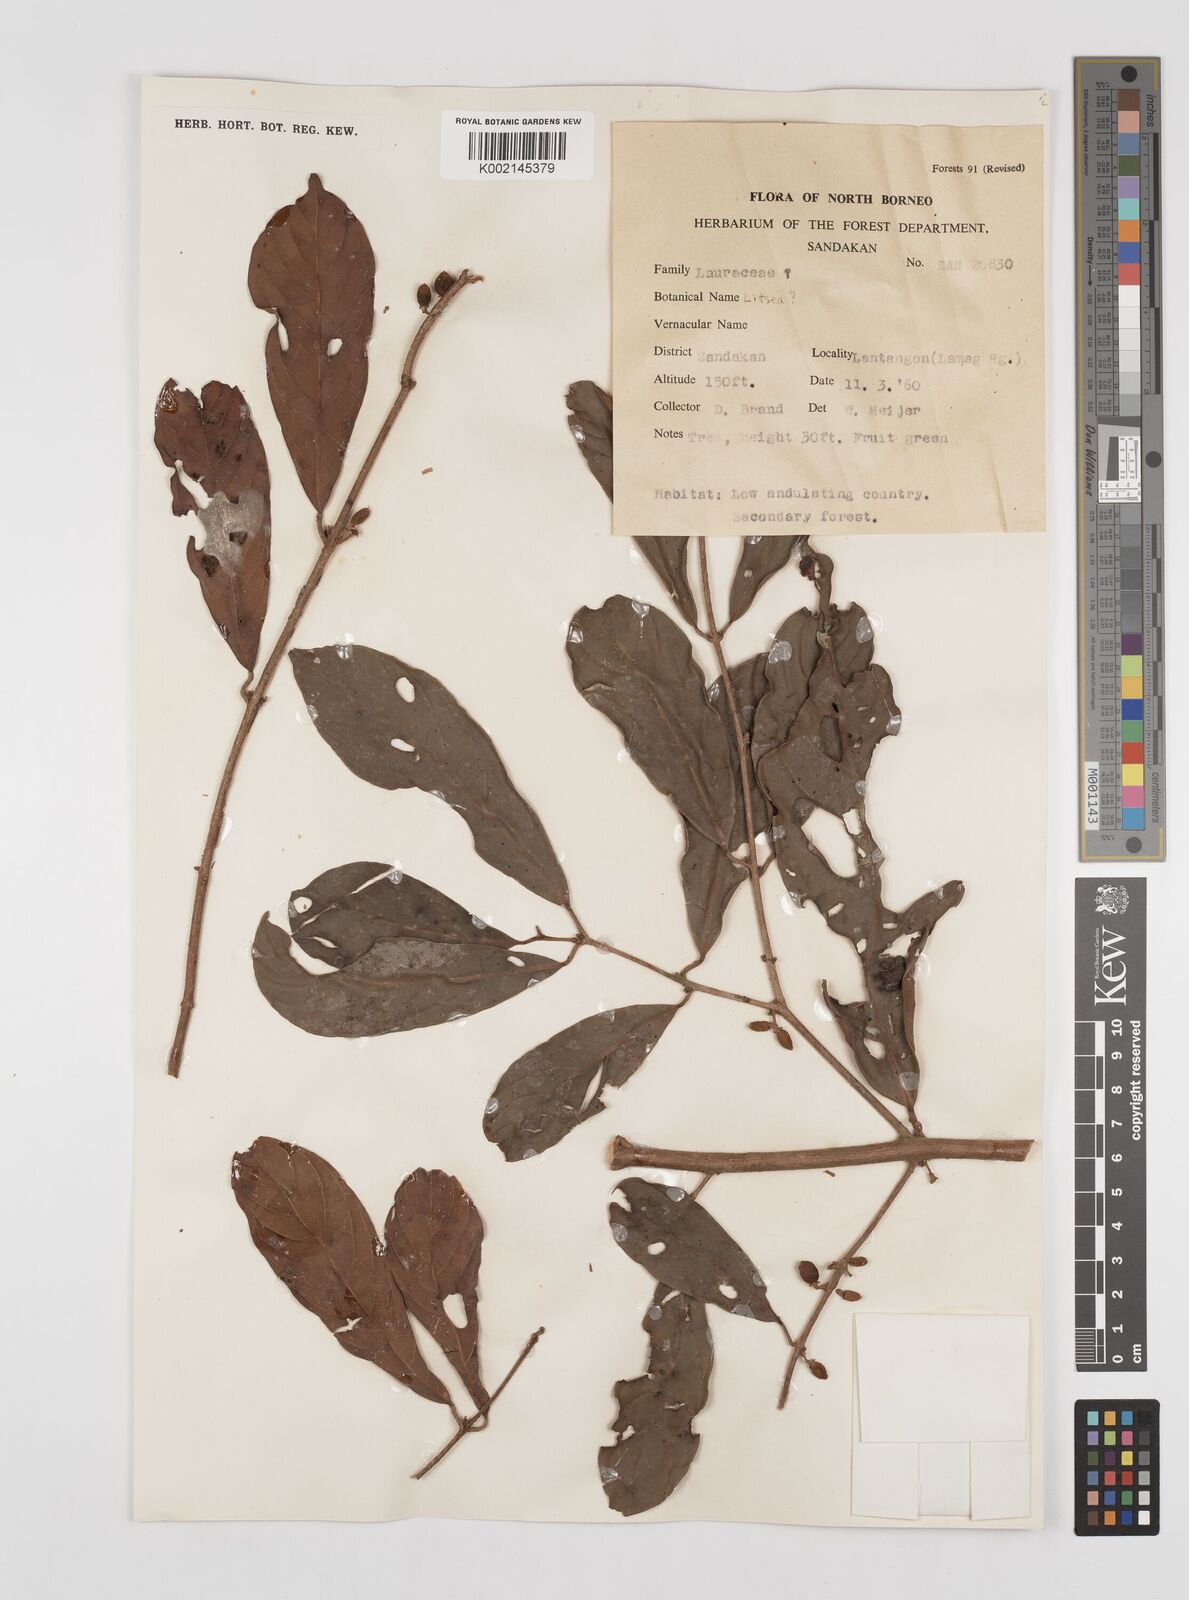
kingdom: Plantae
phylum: Tracheophyta
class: Magnoliopsida
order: Laurales
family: Lauraceae
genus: Litsea
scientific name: Litsea
